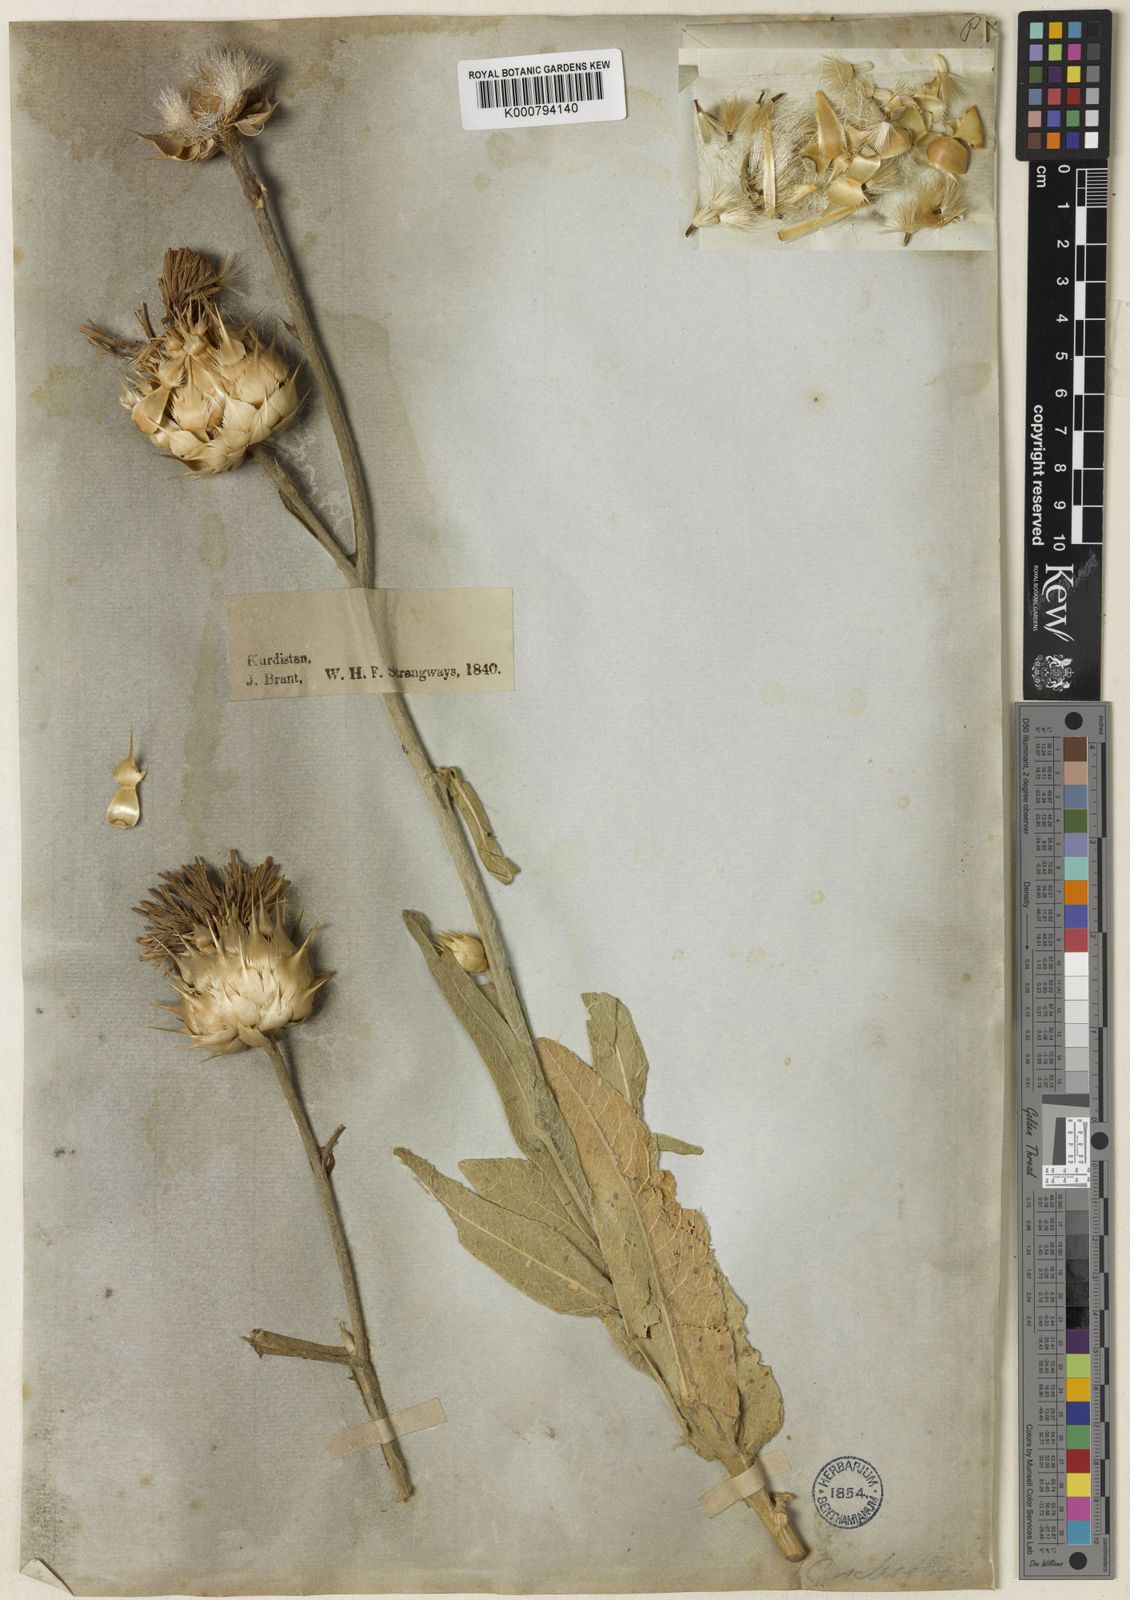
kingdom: Plantae
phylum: Tracheophyta
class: Magnoliopsida
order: Asterales
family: Asteraceae
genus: Centaurea
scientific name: Centaurea sclerolepis
